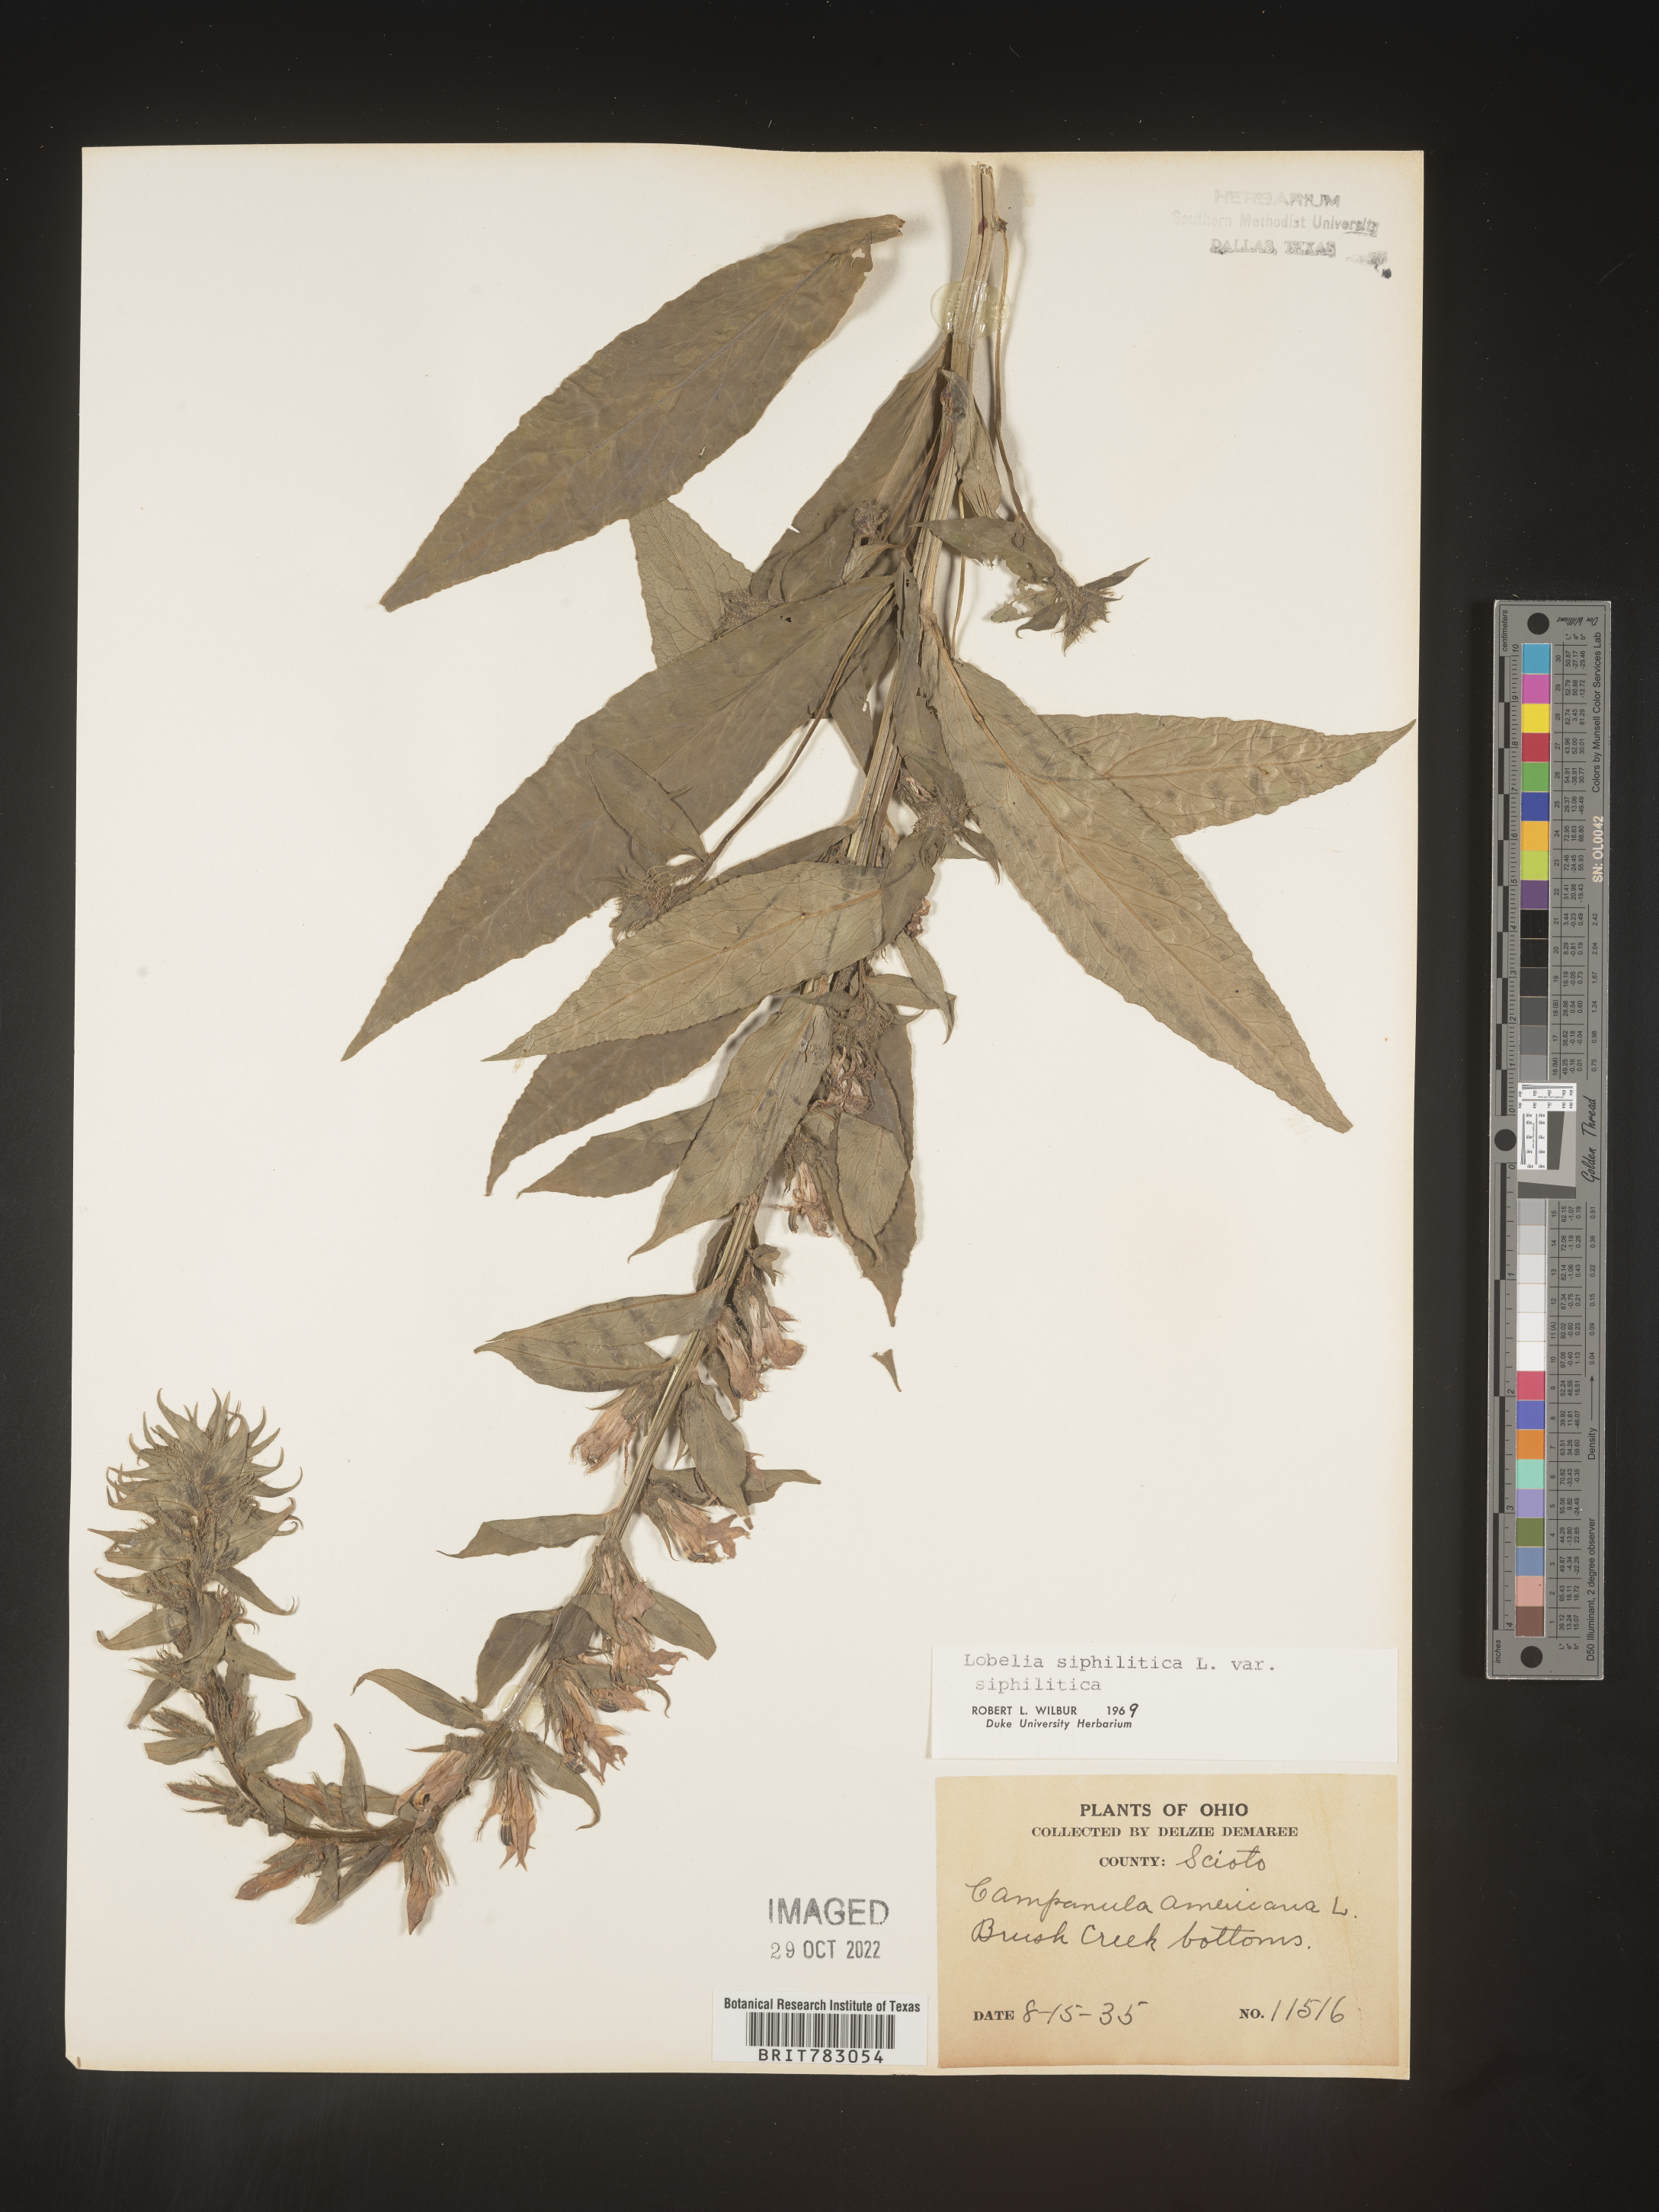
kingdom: Plantae
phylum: Tracheophyta
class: Magnoliopsida
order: Asterales
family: Campanulaceae
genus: Lobelia
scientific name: Lobelia siphilitica
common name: Great lobelia
